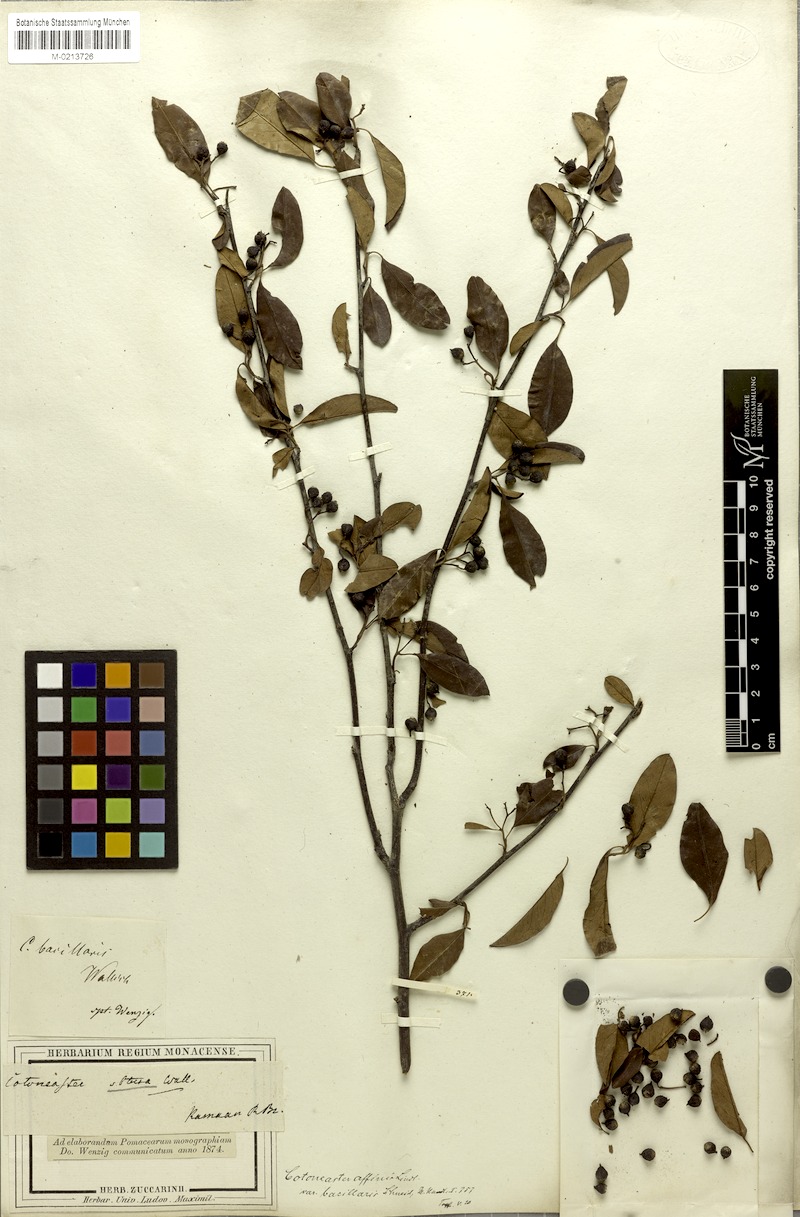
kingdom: Plantae
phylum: Tracheophyta
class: Magnoliopsida
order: Rosales
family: Rosaceae
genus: Cotoneaster
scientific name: Cotoneaster affinis
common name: Purpleberry cotoneaster
